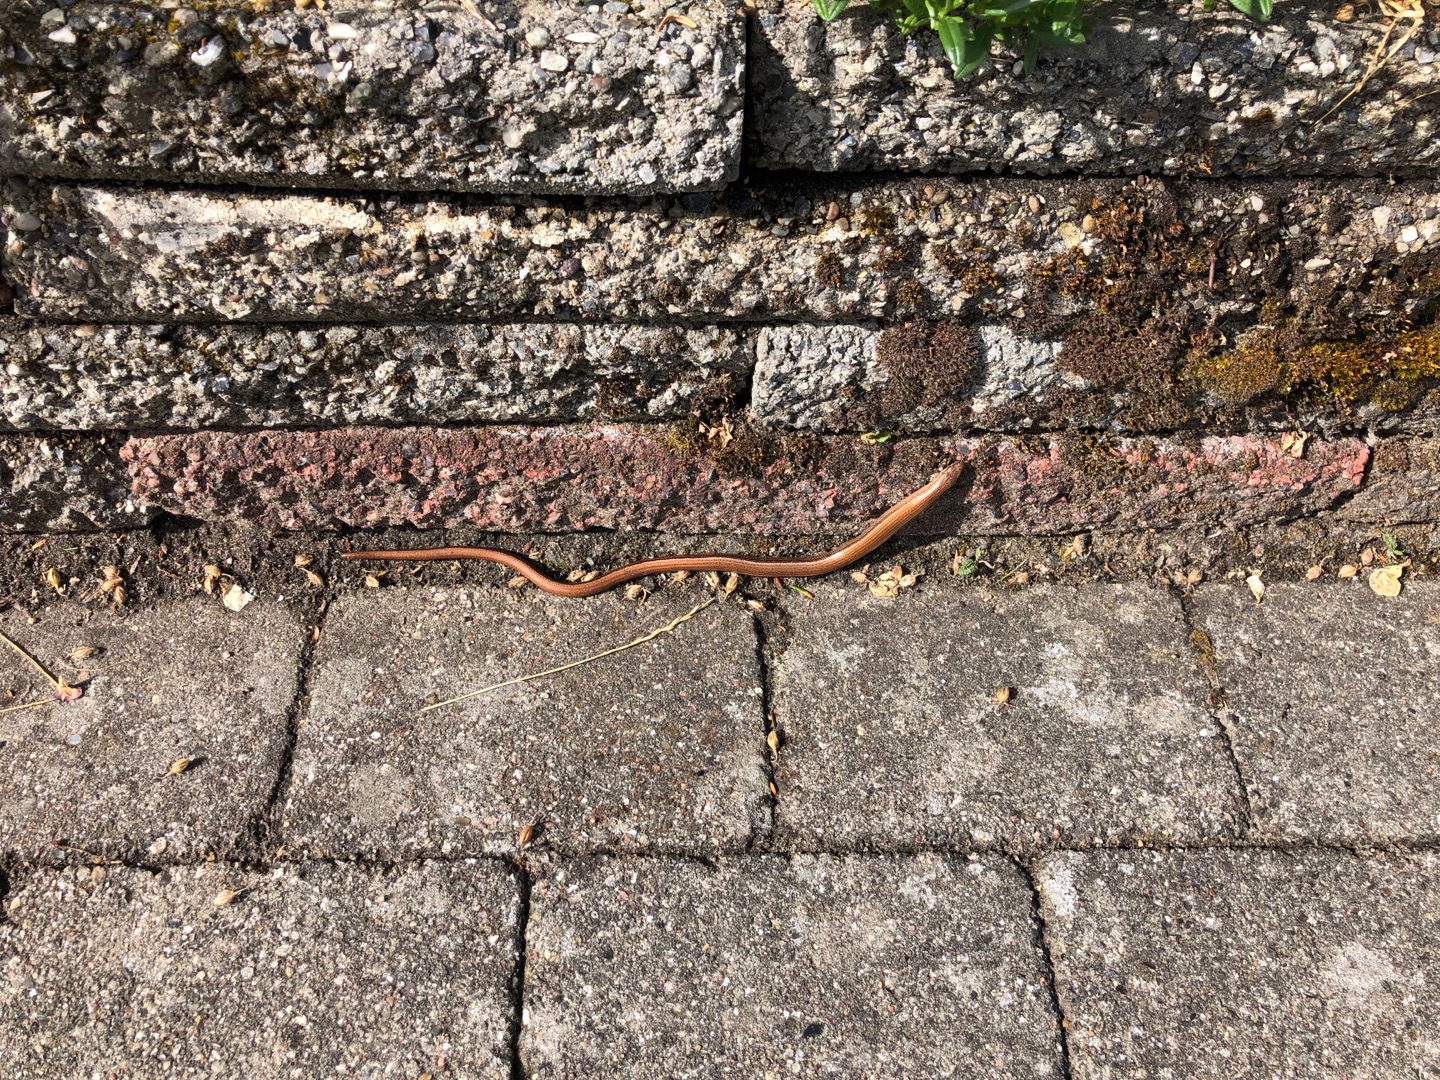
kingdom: Animalia
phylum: Chordata
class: Squamata
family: Anguidae
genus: Anguis
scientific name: Anguis fragilis
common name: Stålorm
